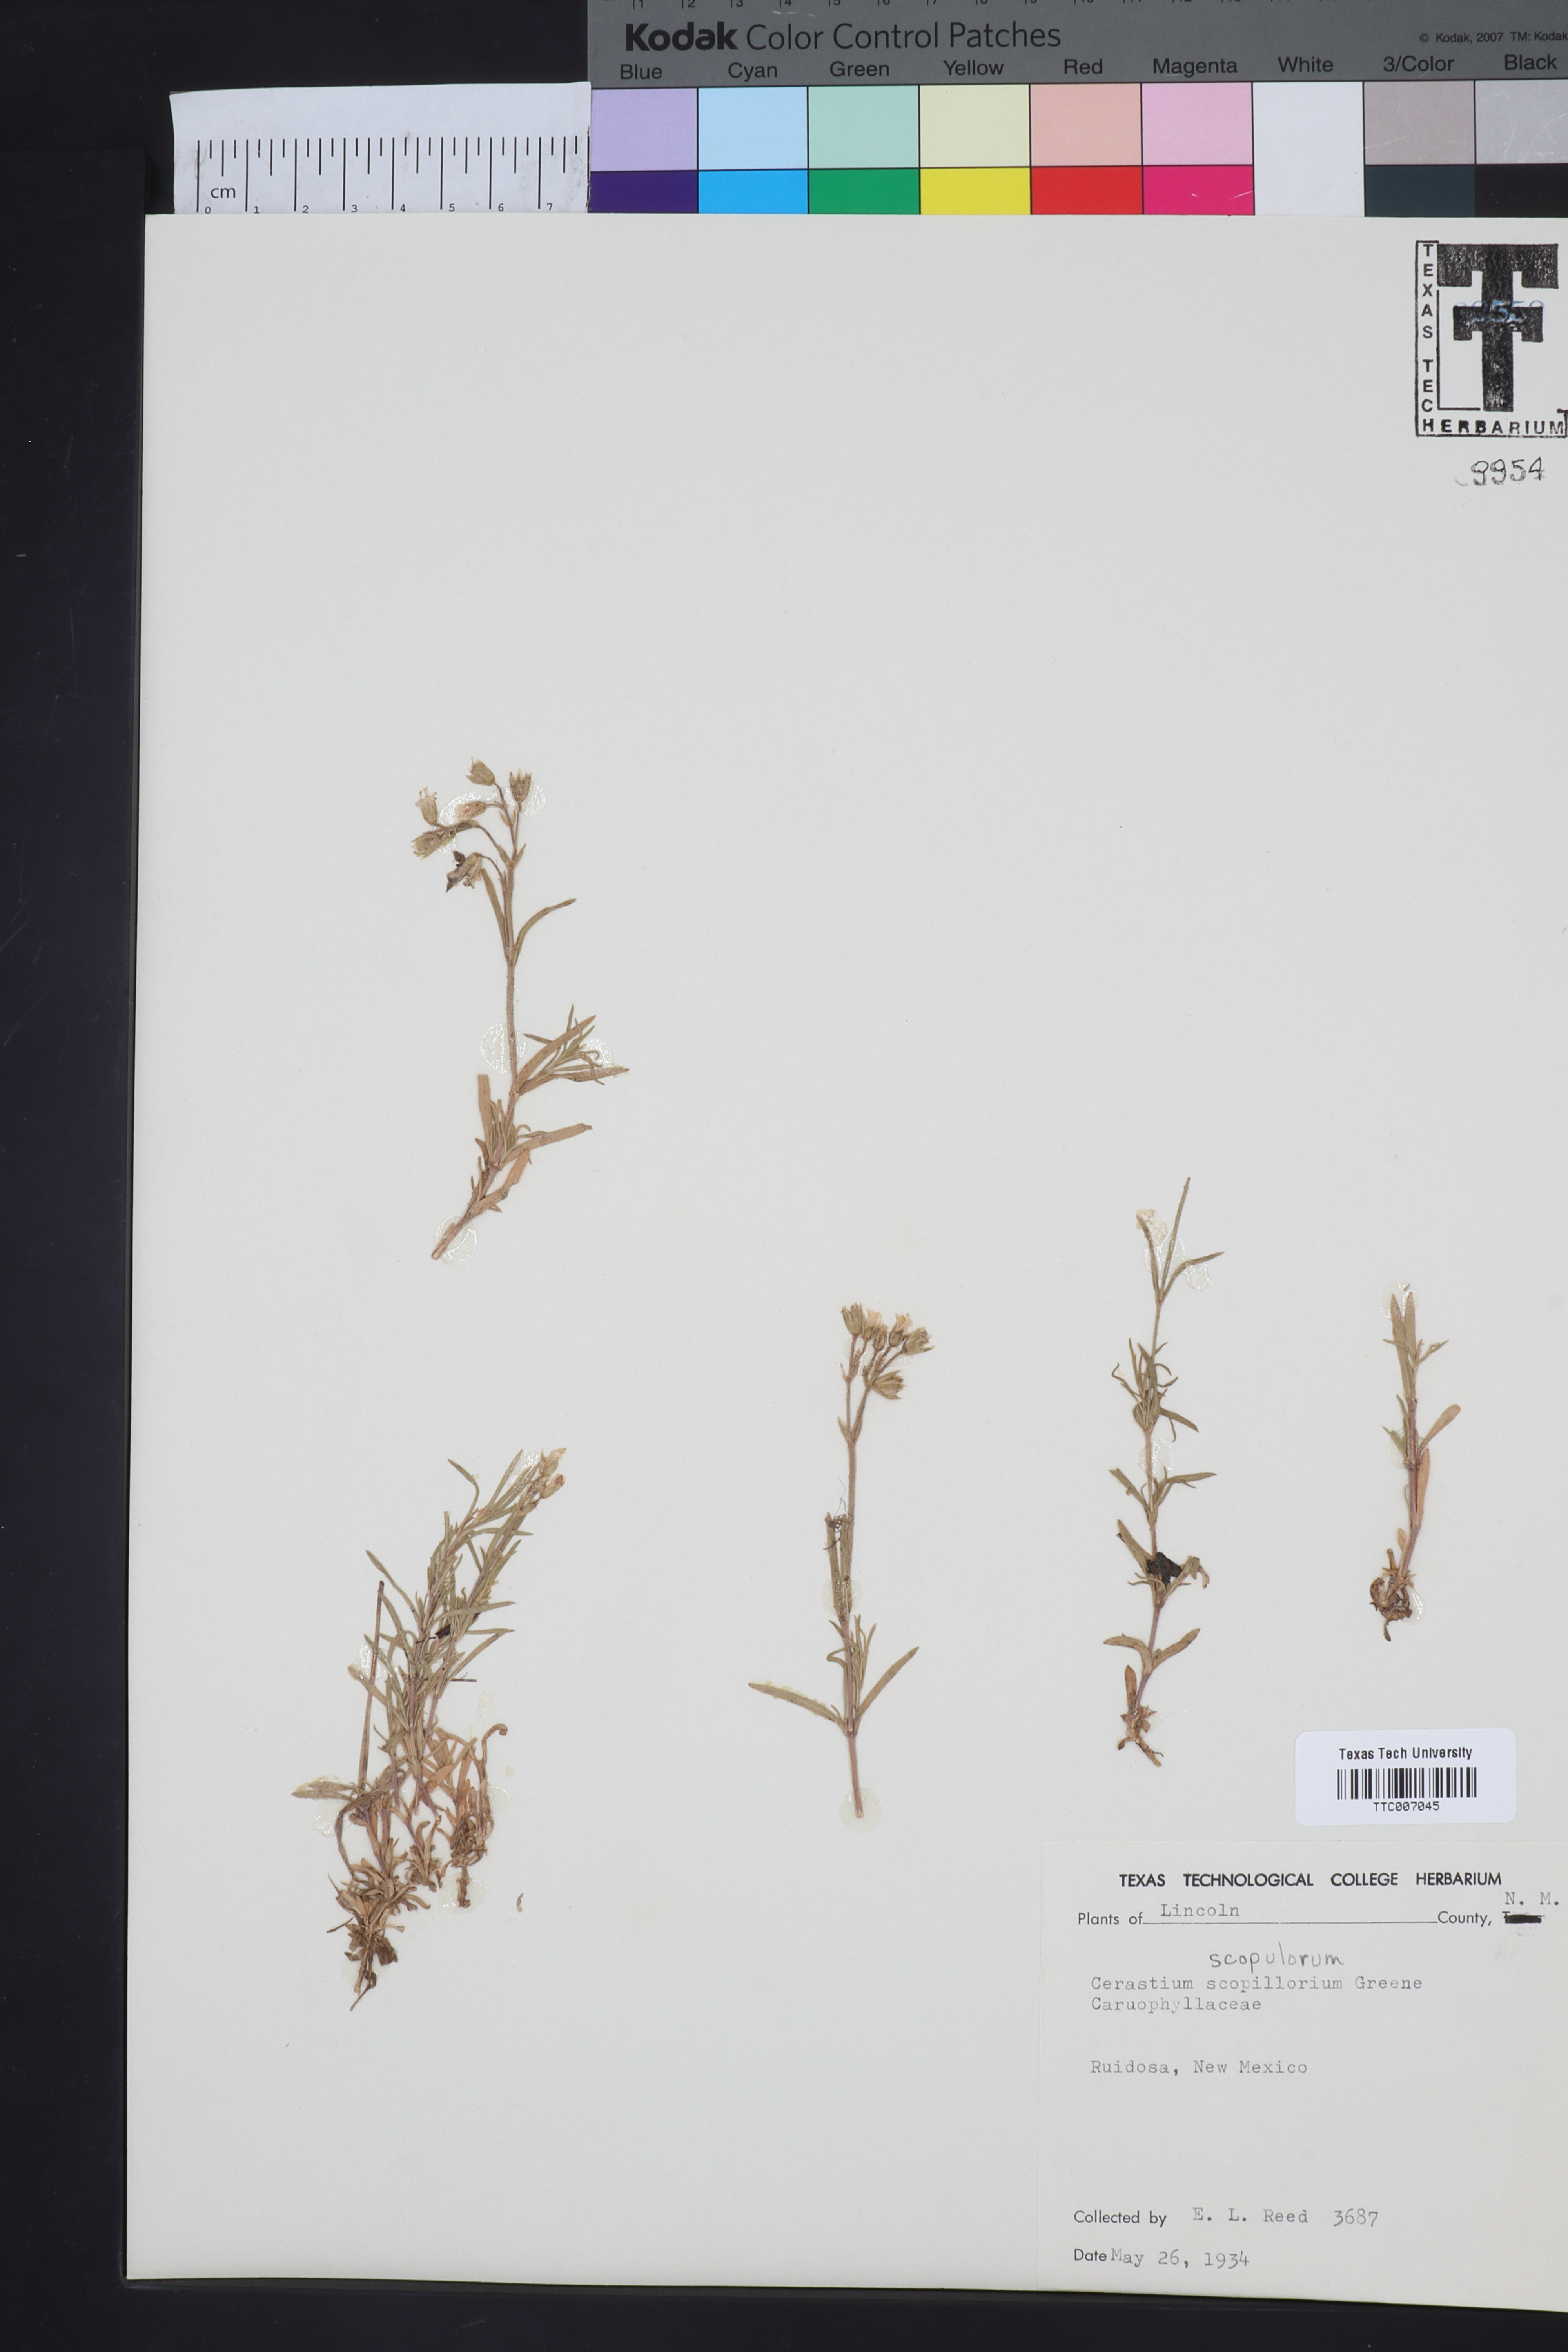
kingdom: Plantae
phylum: Tracheophyta
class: Magnoliopsida
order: Caryophyllales
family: Caryophyllaceae
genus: Cerastium
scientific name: Cerastium elongatum
